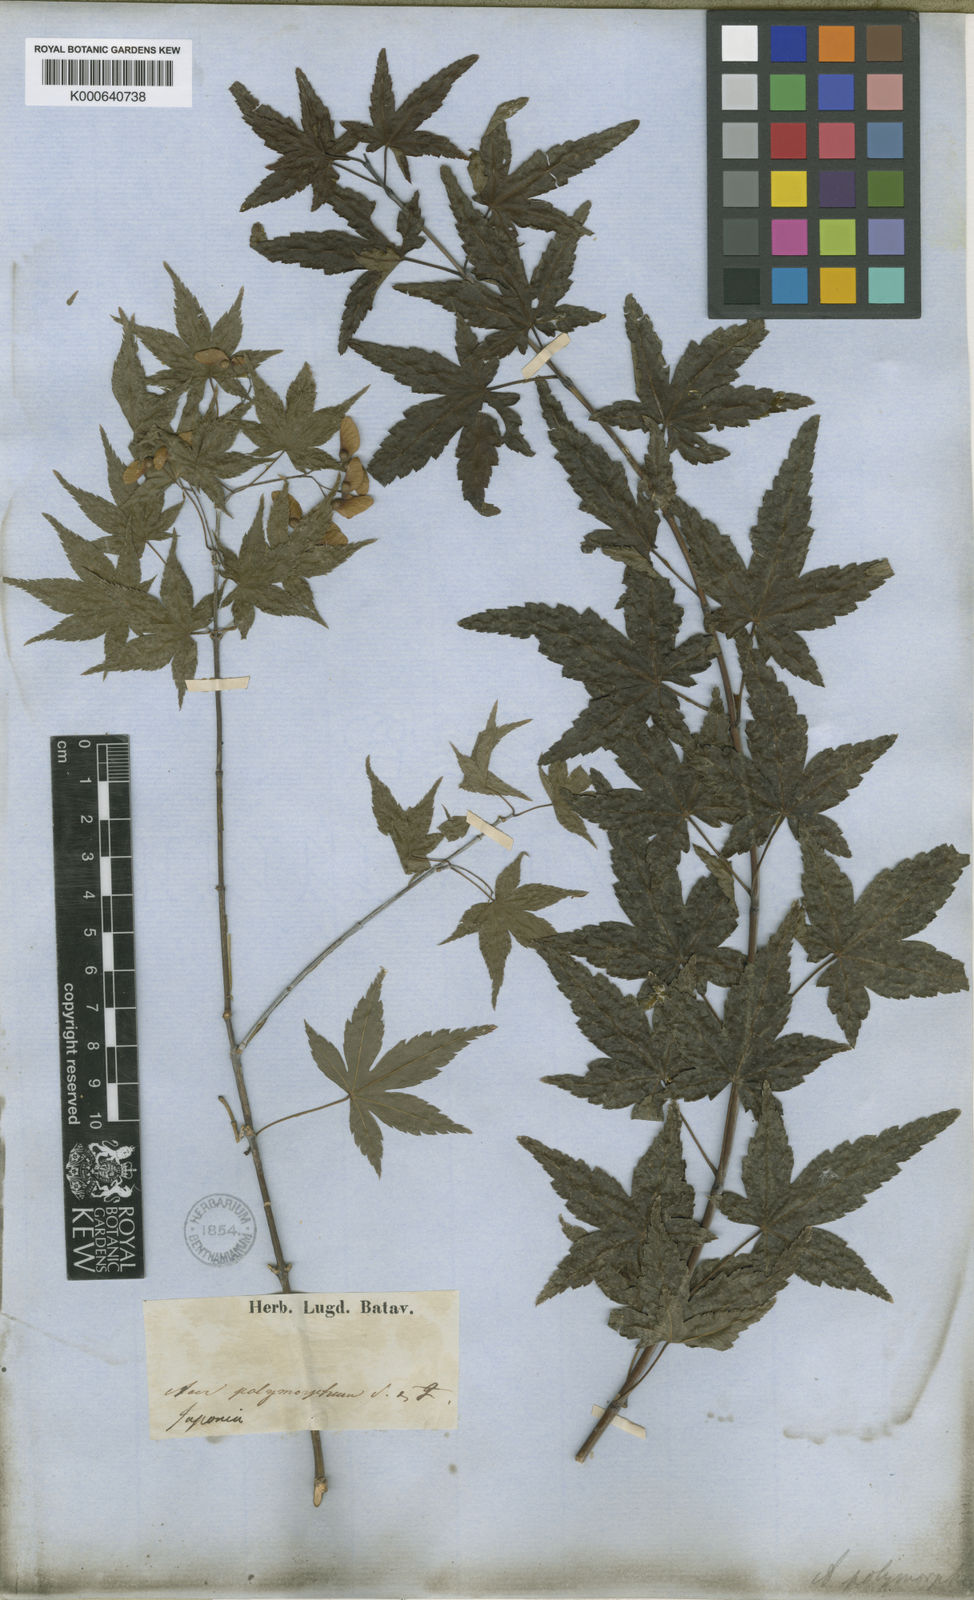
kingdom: Plantae
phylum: Tracheophyta
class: Magnoliopsida
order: Sapindales
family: Sapindaceae
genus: Acer
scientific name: Acer palmatum
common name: Japanese maple
